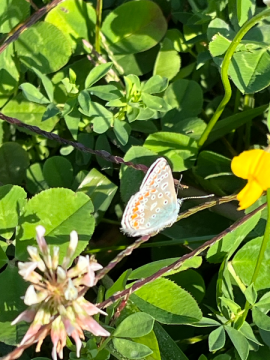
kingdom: Animalia
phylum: Arthropoda
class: Insecta
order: Lepidoptera
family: Lycaenidae
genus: Polyommatus
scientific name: Polyommatus icarus
